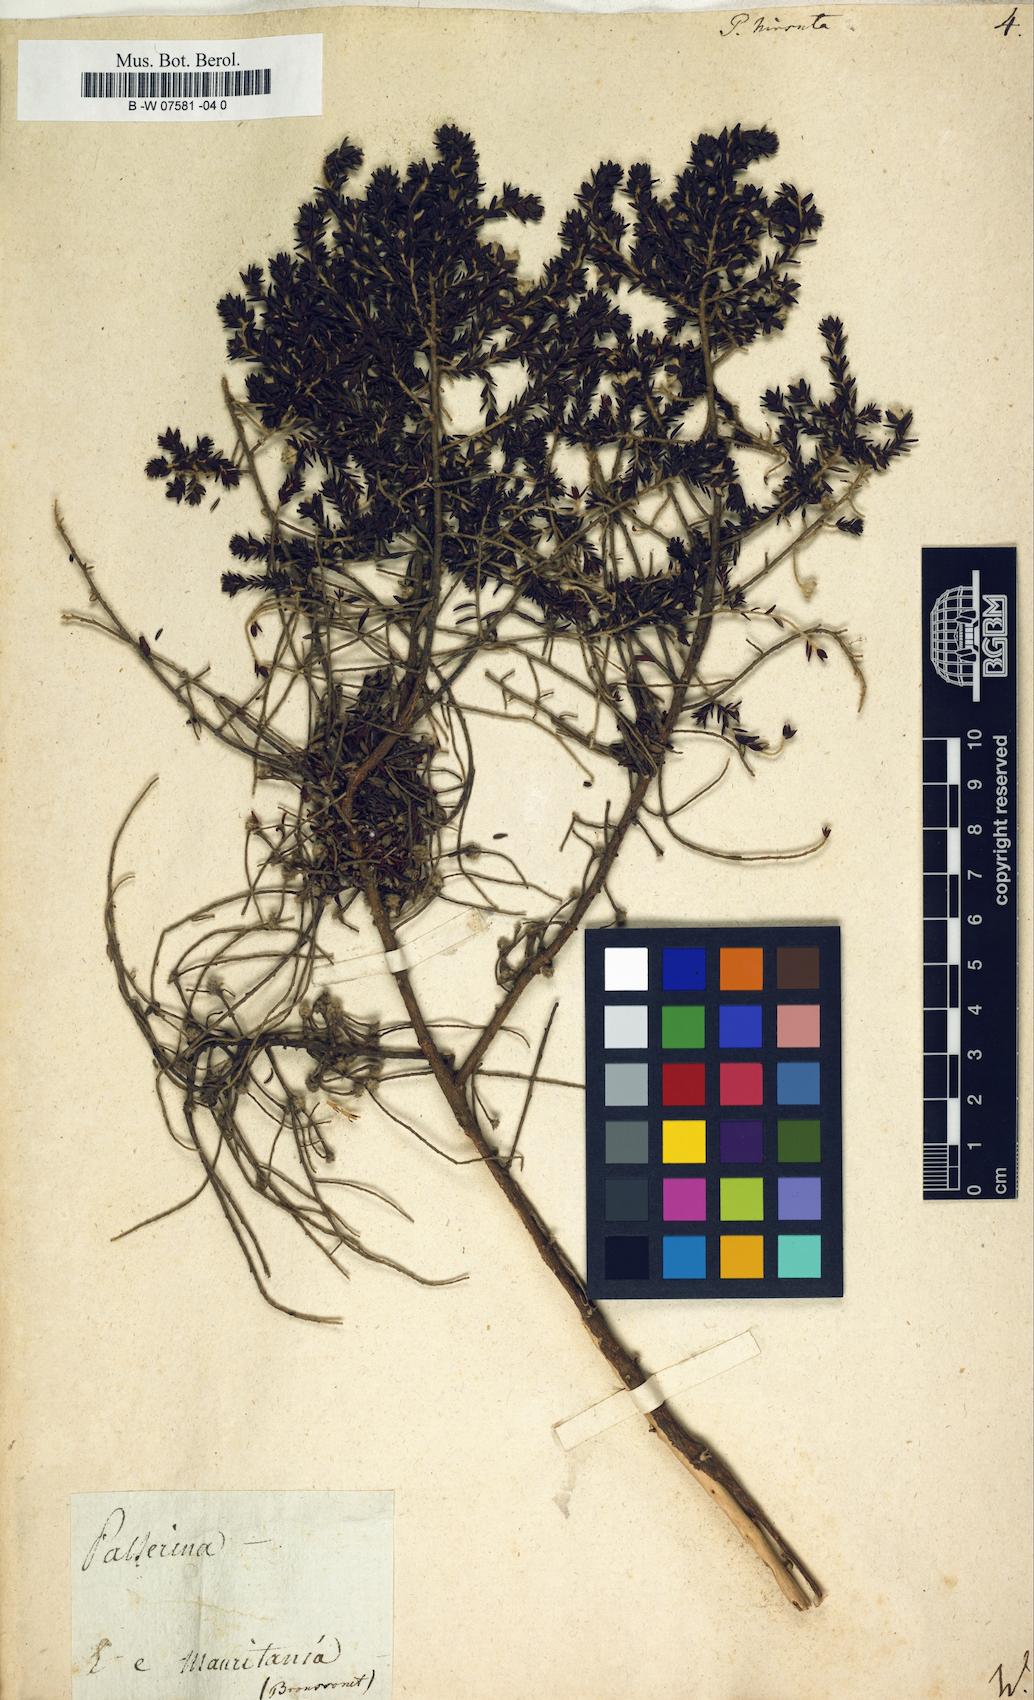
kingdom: Plantae
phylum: Tracheophyta
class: Magnoliopsida
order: Malvales
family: Thymelaeaceae
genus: Thymelaea
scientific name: Thymelaea
